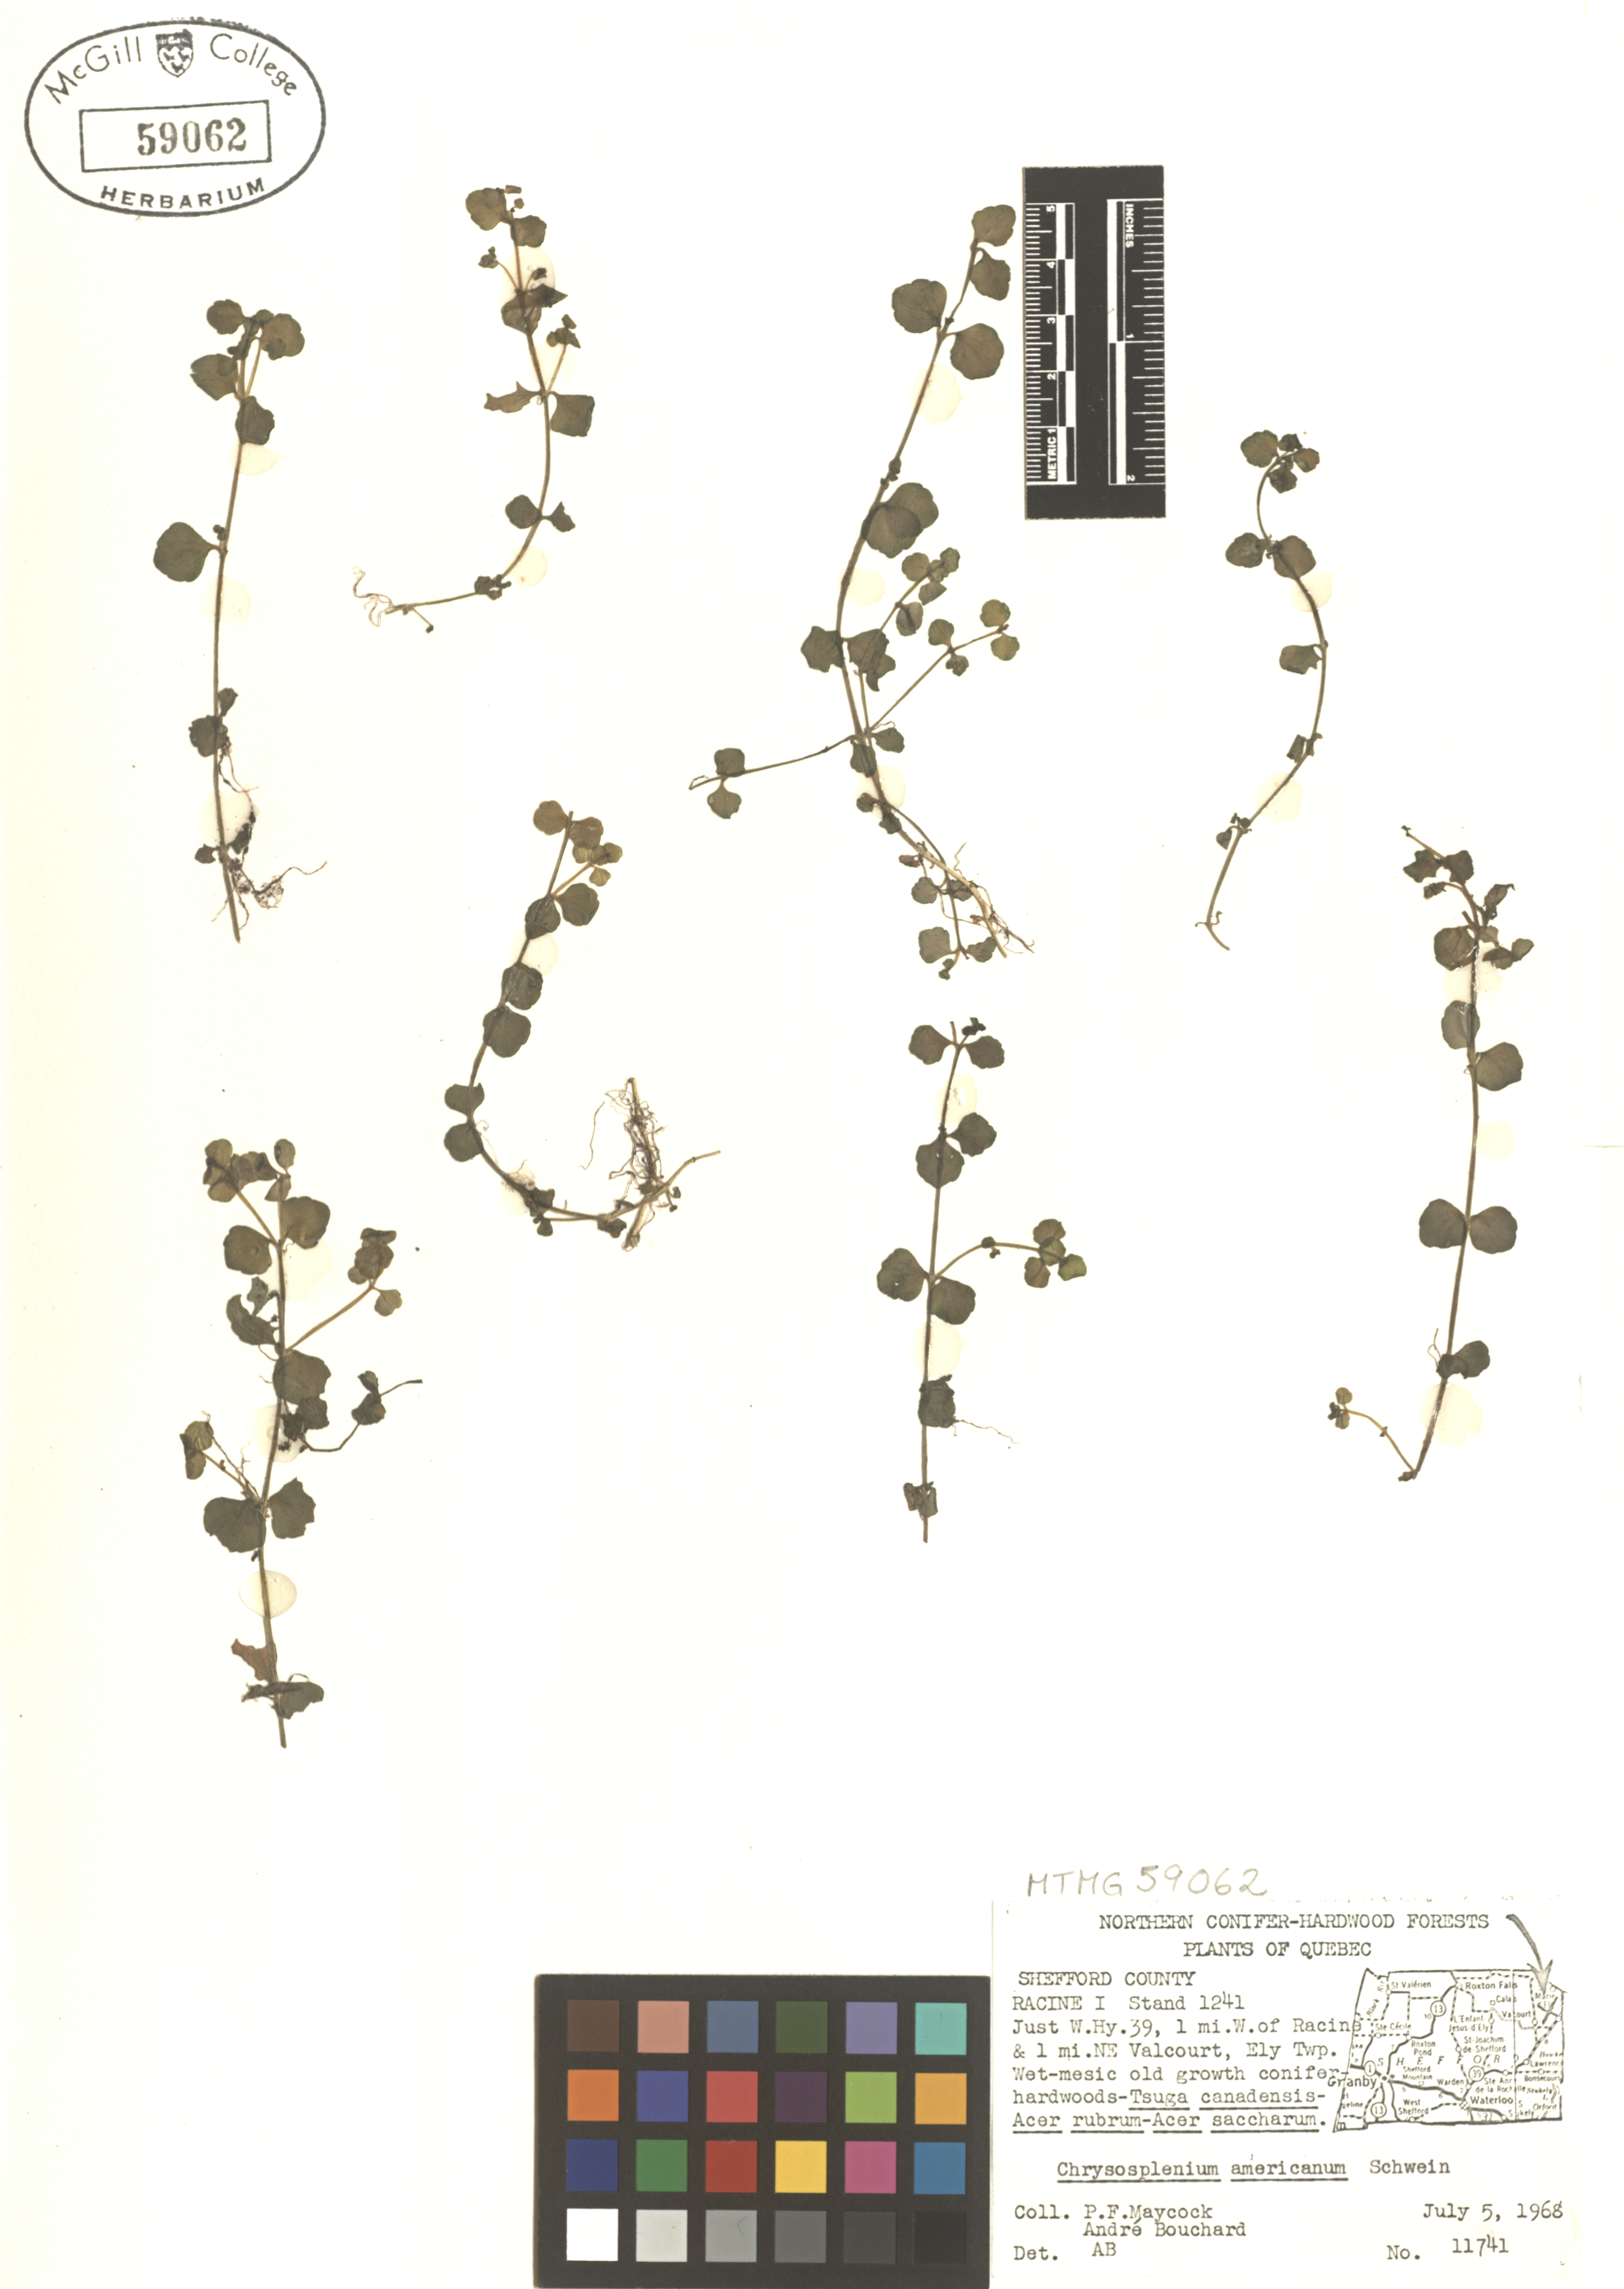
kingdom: Plantae
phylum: Tracheophyta
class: Magnoliopsida
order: Saxifragales
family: Saxifragaceae
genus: Chrysosplenium
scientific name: Chrysosplenium americanum
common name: American golden-saxifrage
